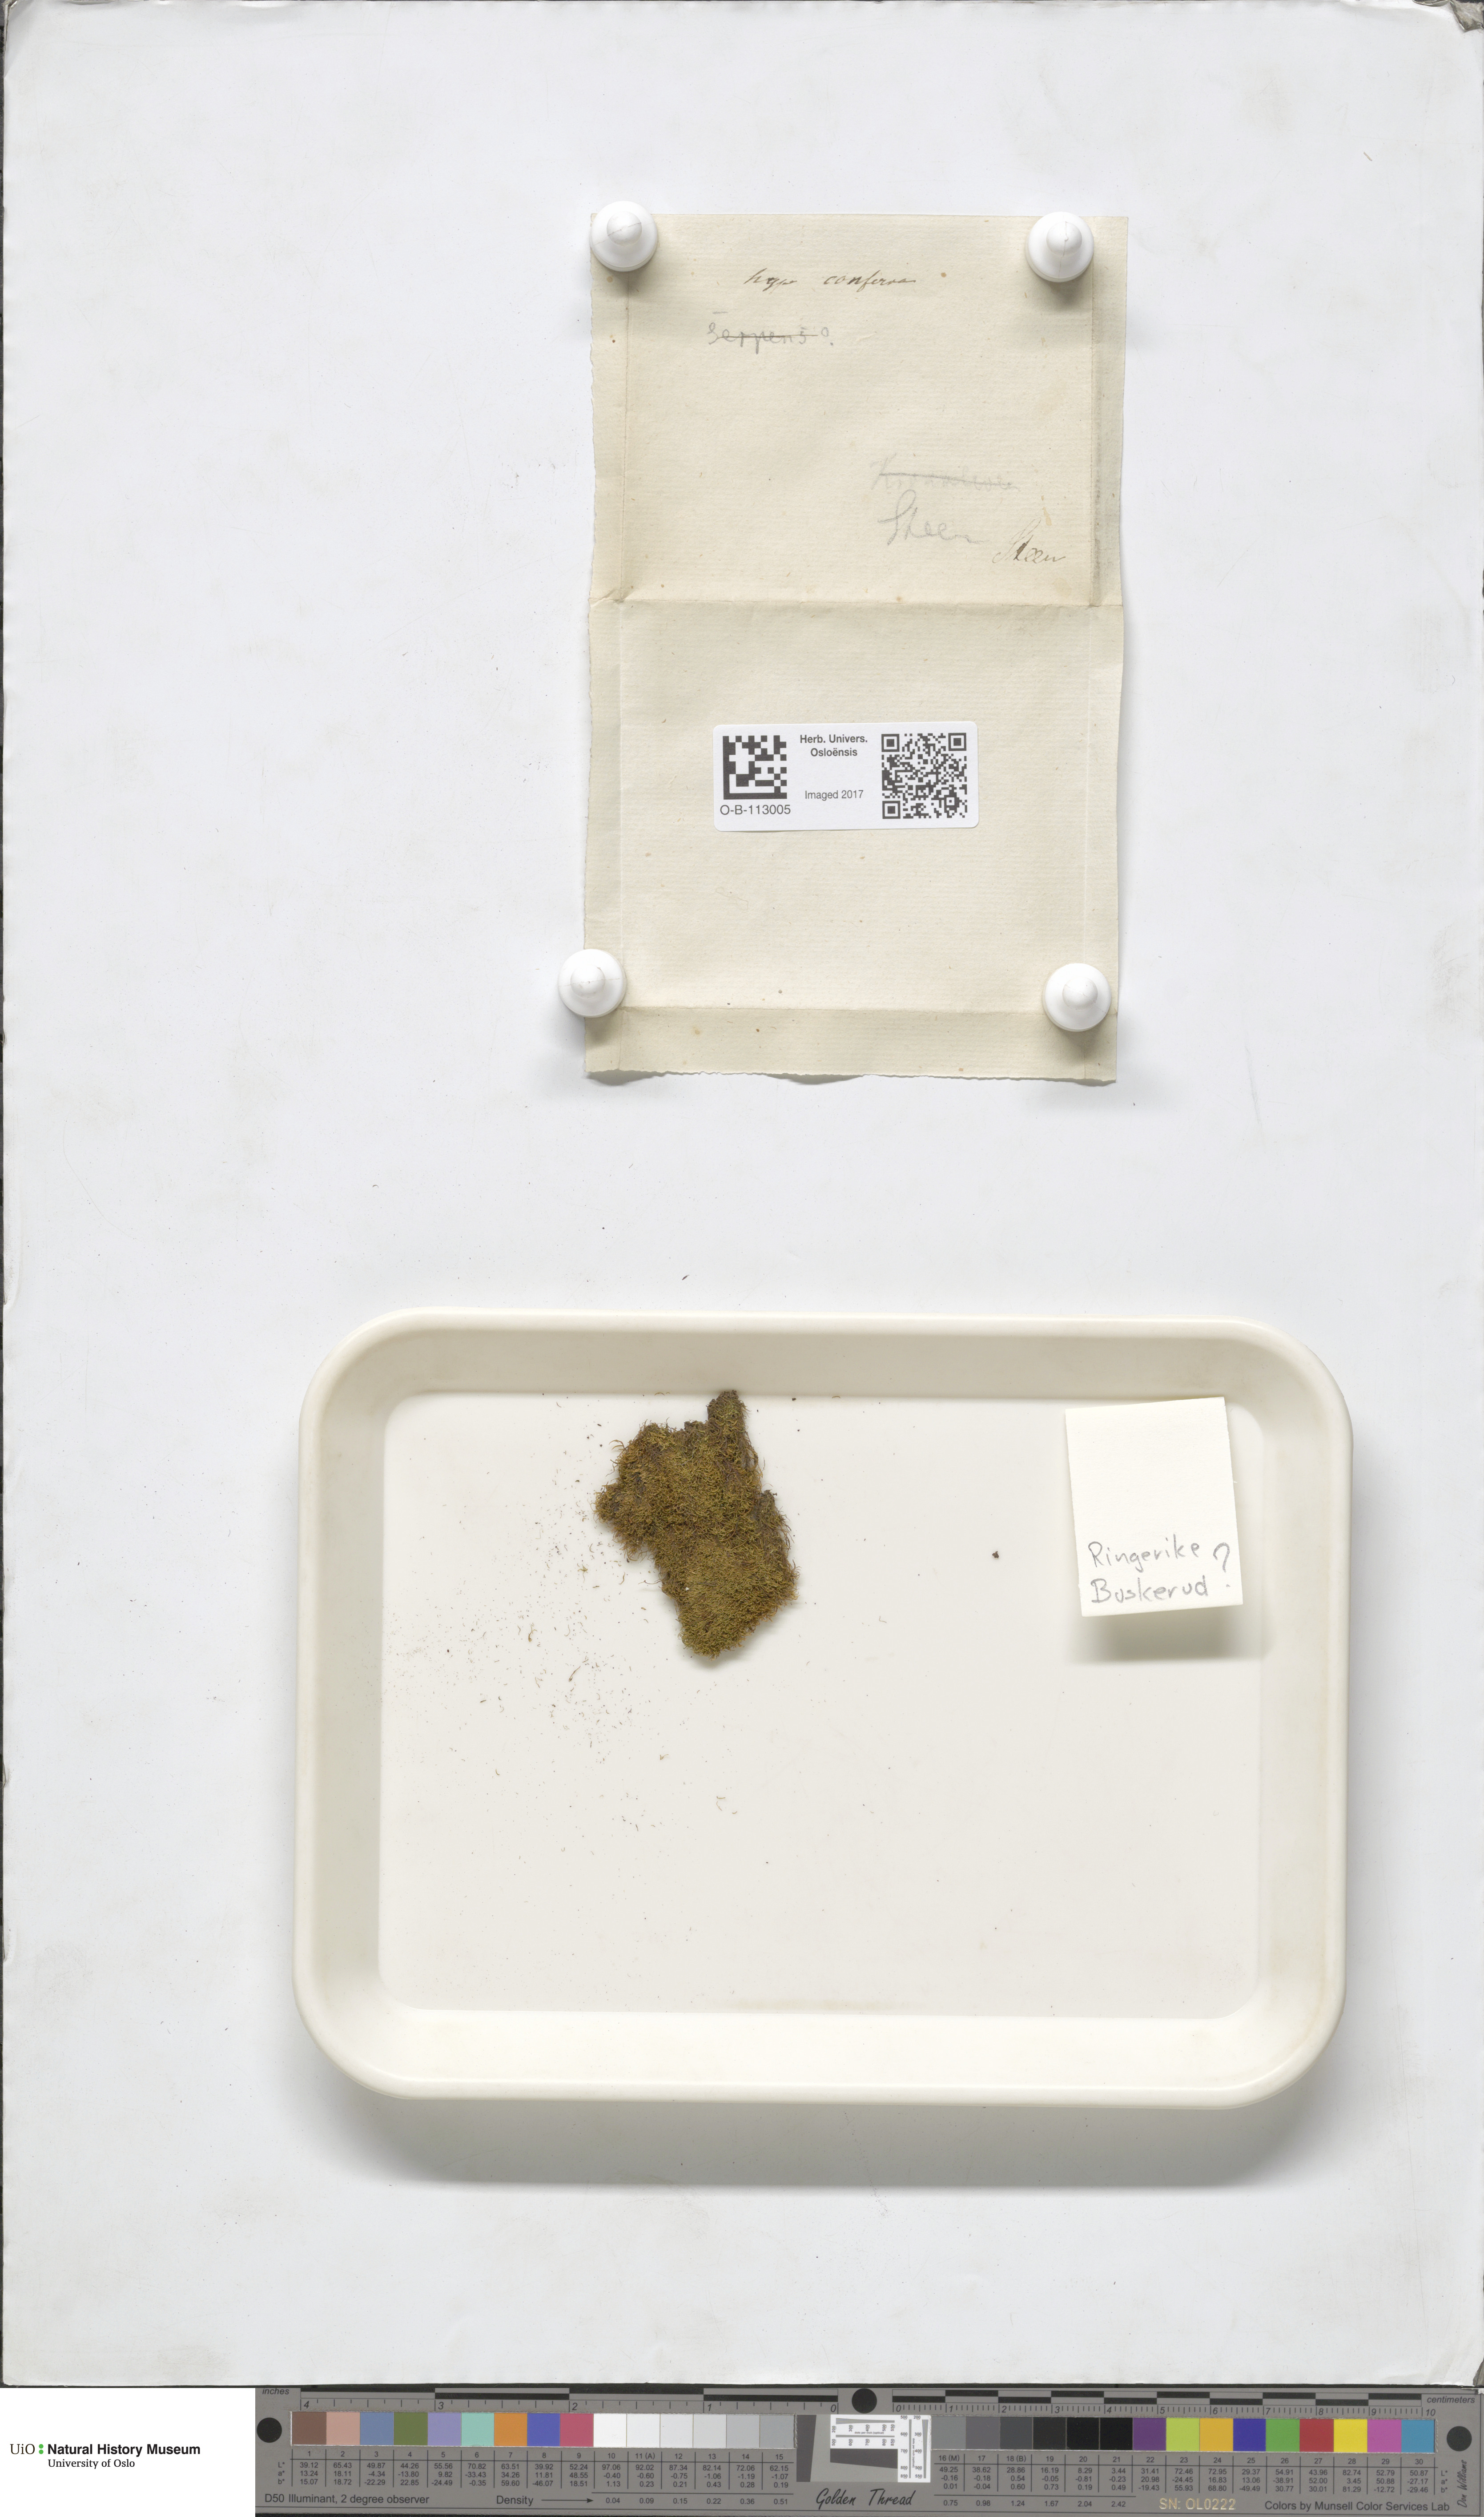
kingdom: Plantae
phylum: Bryophyta
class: Bryopsida
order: Hypnales
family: Amblystegiaceae
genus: Serpoleskea
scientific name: Serpoleskea confervoides
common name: Alga-like matted-moss
